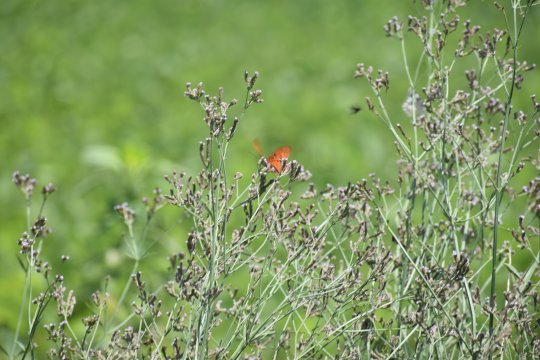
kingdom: Animalia
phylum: Arthropoda
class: Insecta
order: Lepidoptera
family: Nymphalidae
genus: Dione
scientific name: Dione vanillae
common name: Gulf Fritillary
